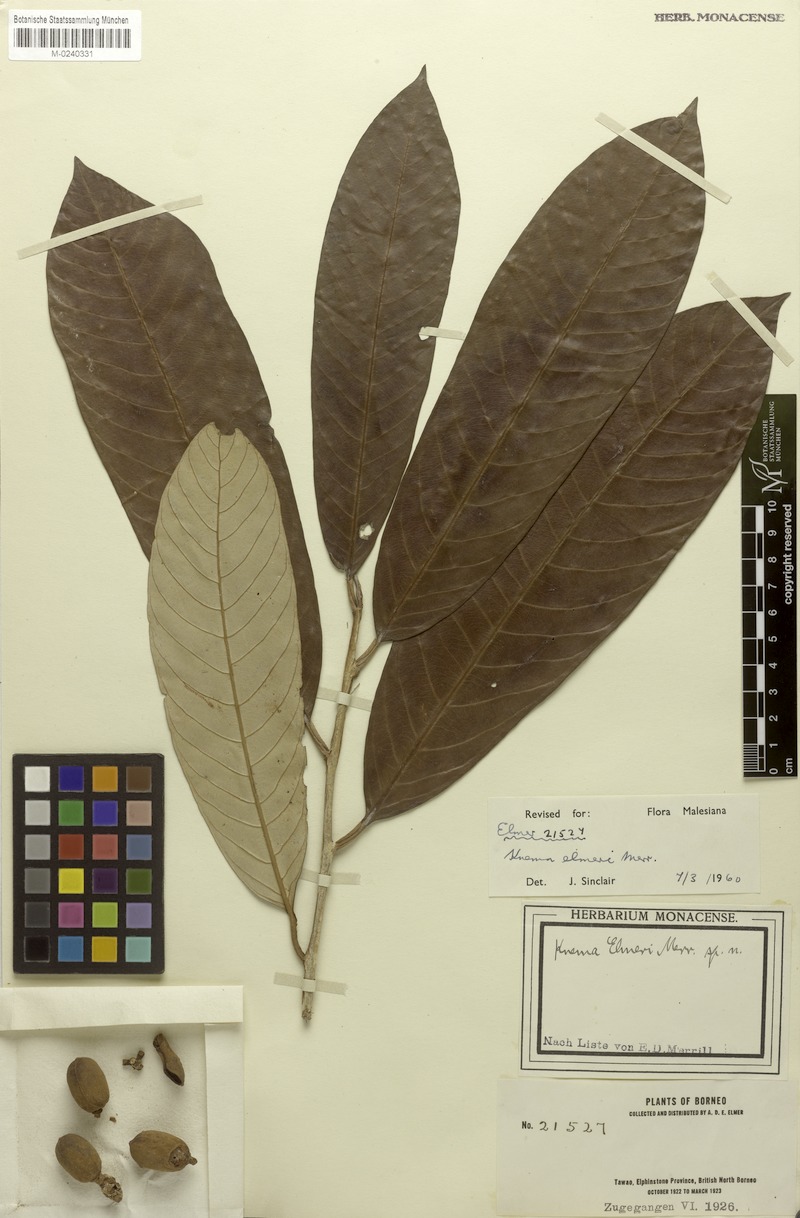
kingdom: Plantae
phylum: Tracheophyta
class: Magnoliopsida
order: Magnoliales
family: Myristicaceae
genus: Knema
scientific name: Knema elmeri
